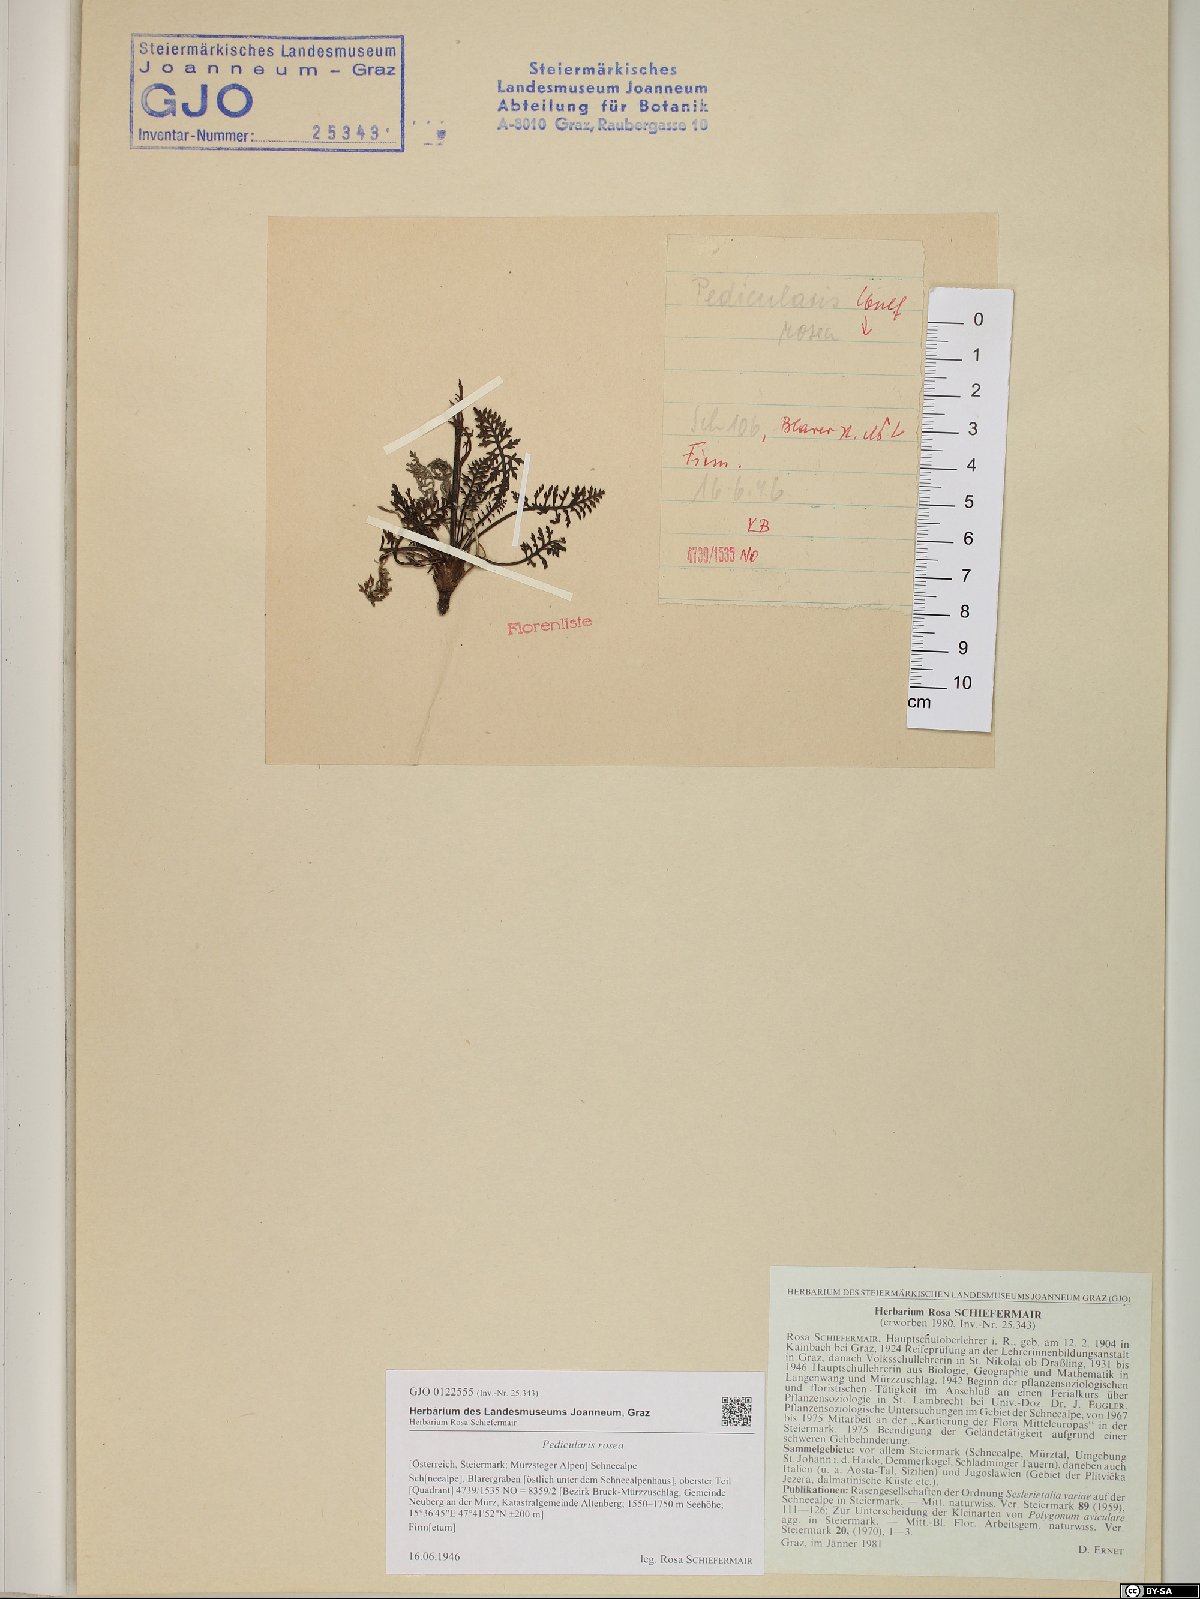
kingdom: Plantae
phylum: Tracheophyta
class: Magnoliopsida
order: Lamiales
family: Orobanchaceae
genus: Pedicularis
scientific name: Pedicularis rosea
